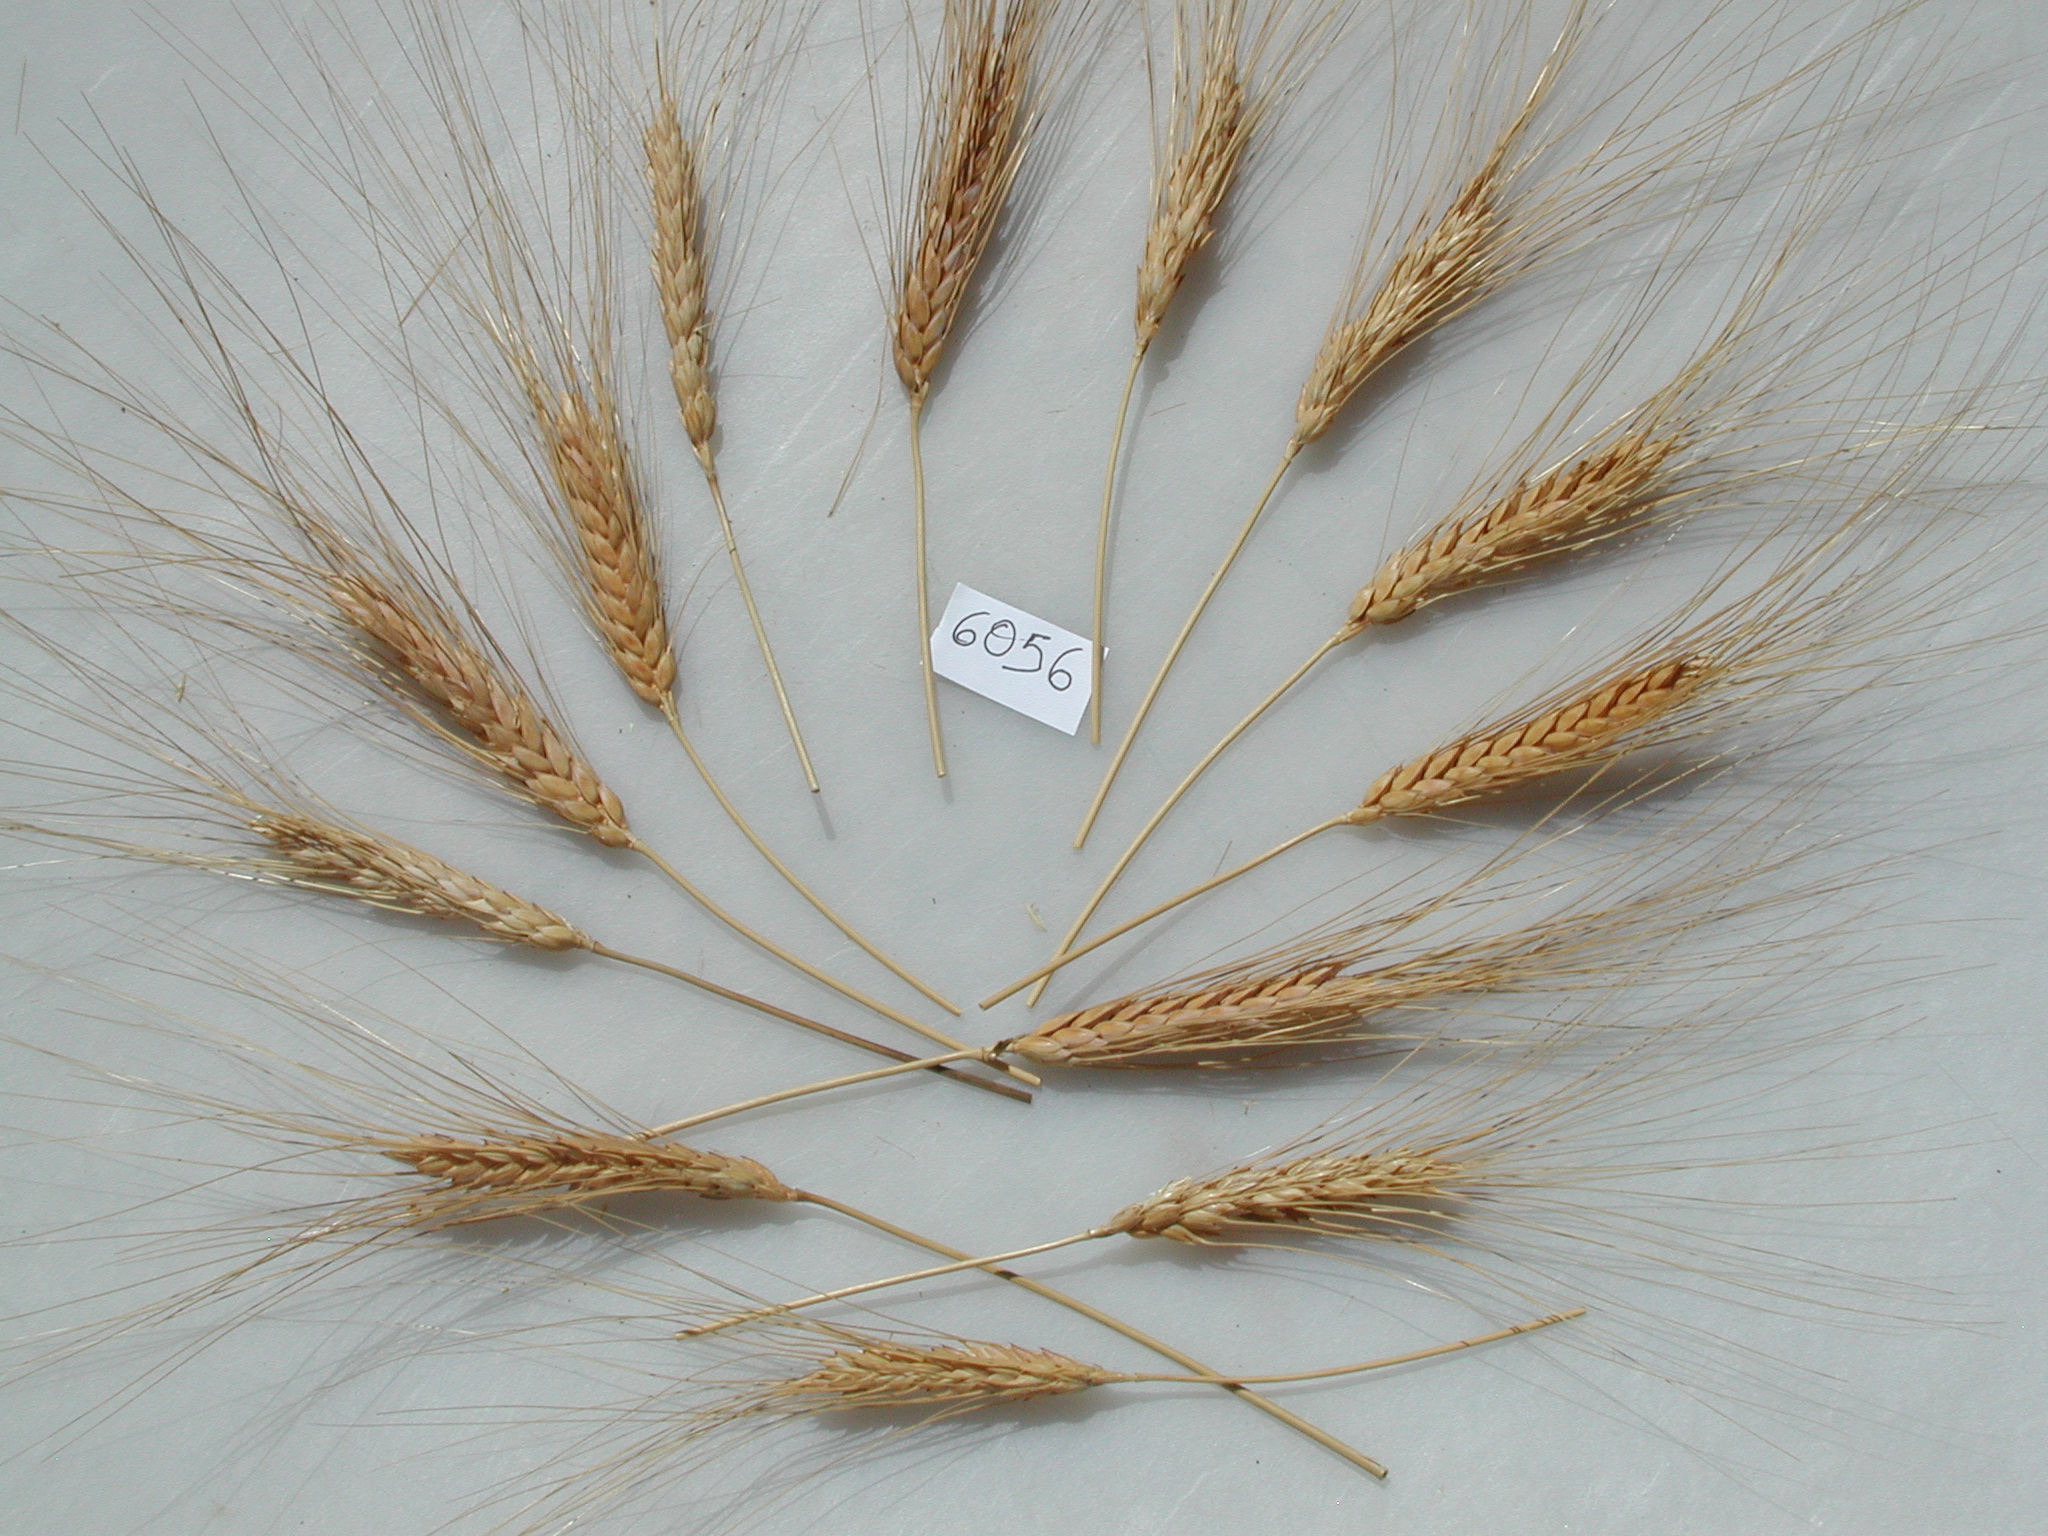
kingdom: Plantae
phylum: Tracheophyta
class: Liliopsida
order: Poales
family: Poaceae
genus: Triticum
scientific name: Triticum turgidum
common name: Wheat
